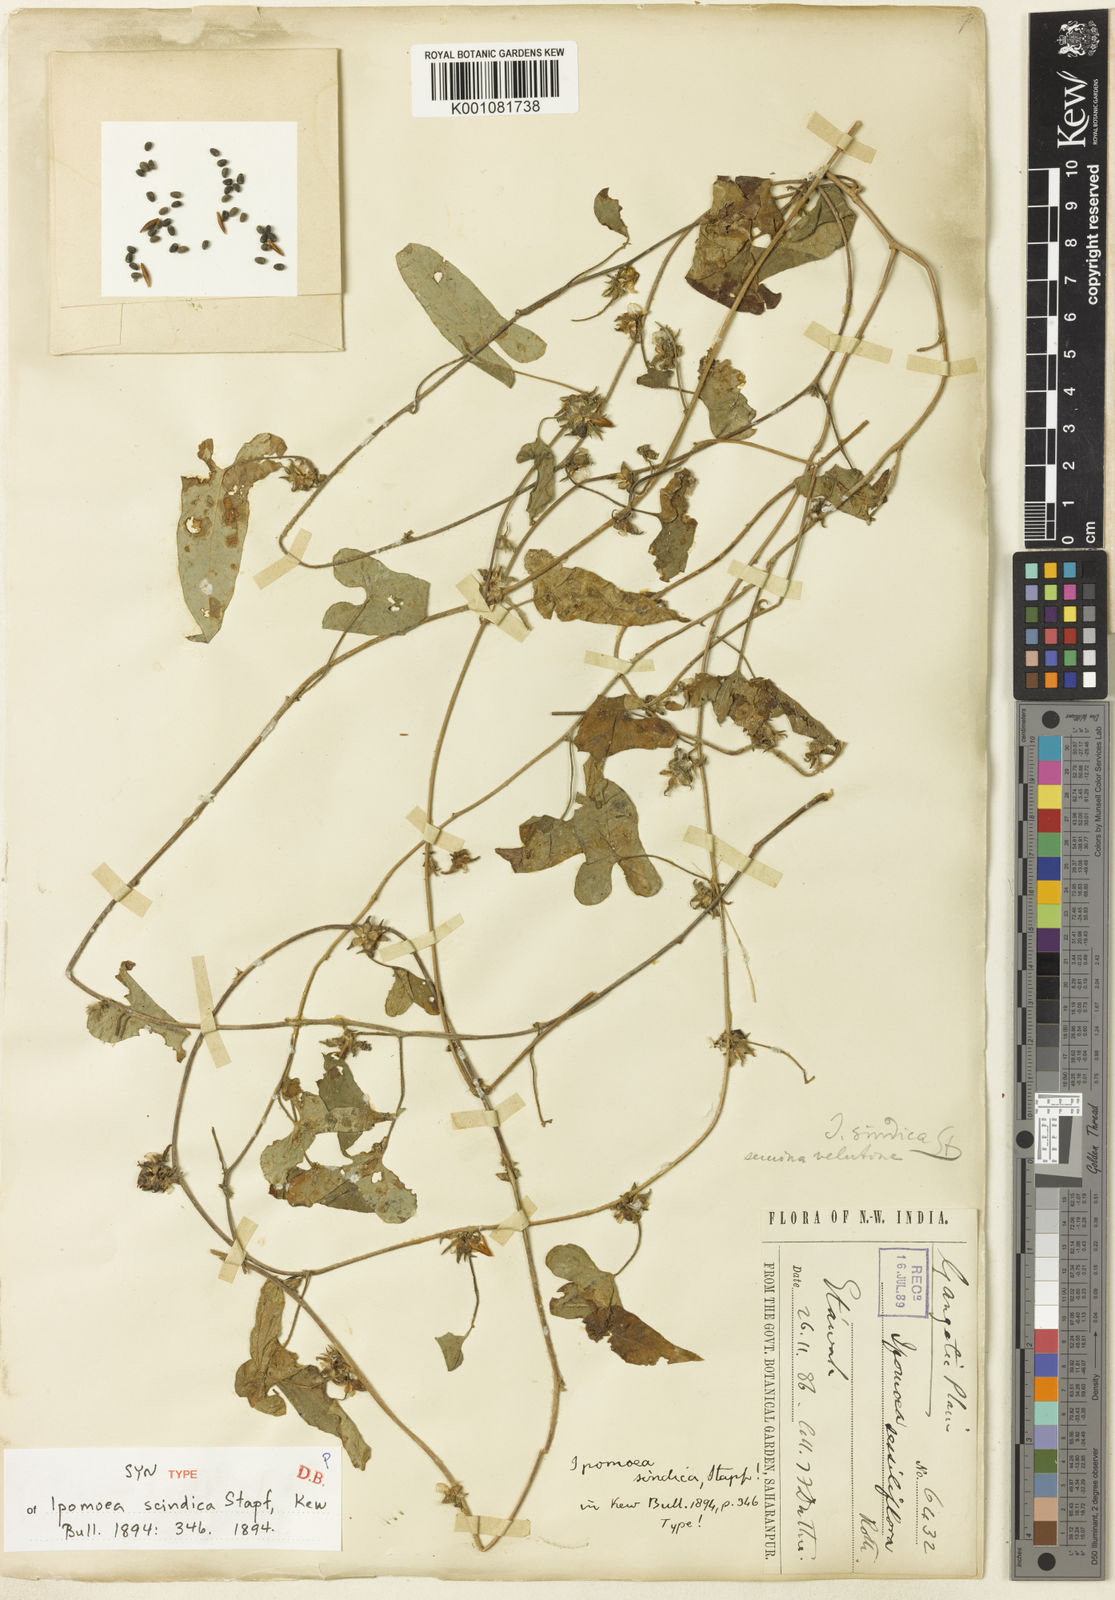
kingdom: Plantae
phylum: Tracheophyta
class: Magnoliopsida
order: Solanales
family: Convolvulaceae
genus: Ipomoea
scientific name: Ipomoea eriocarpa
